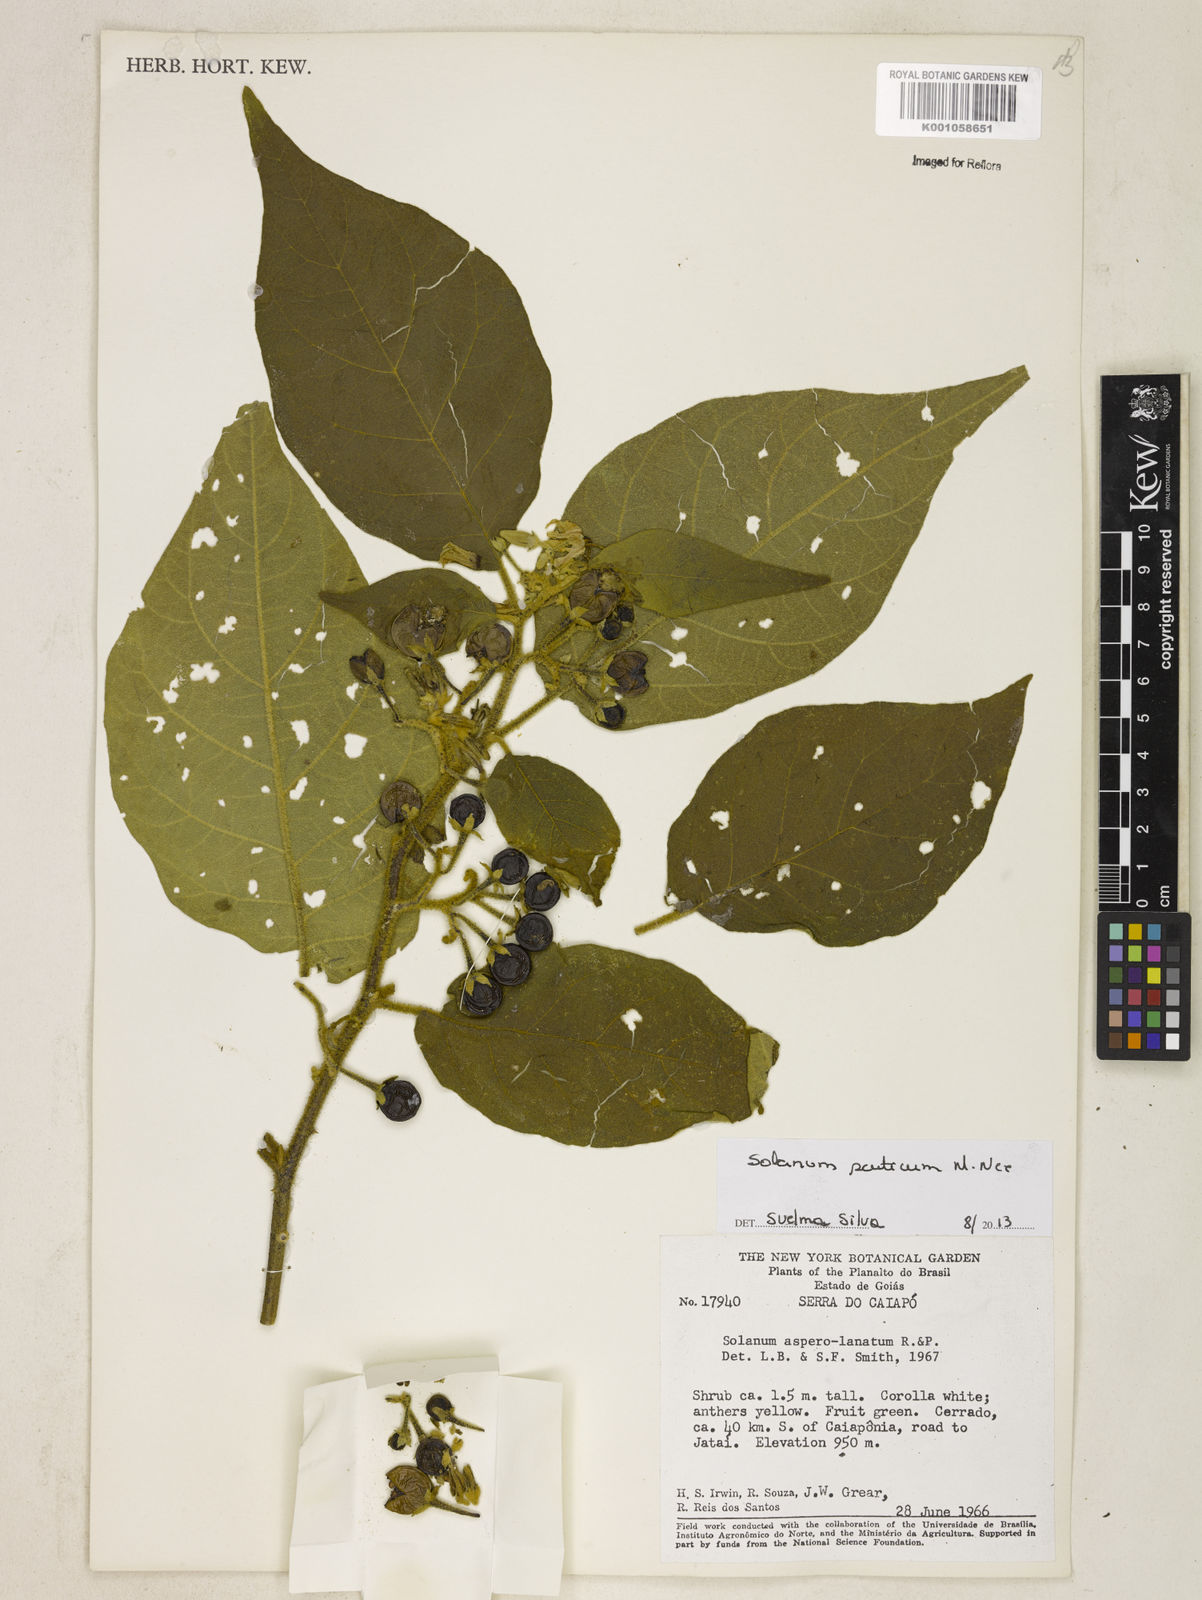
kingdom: Plantae
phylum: Tracheophyta
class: Magnoliopsida
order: Solanales
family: Solanaceae
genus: Solanum
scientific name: Solanum scuticum
